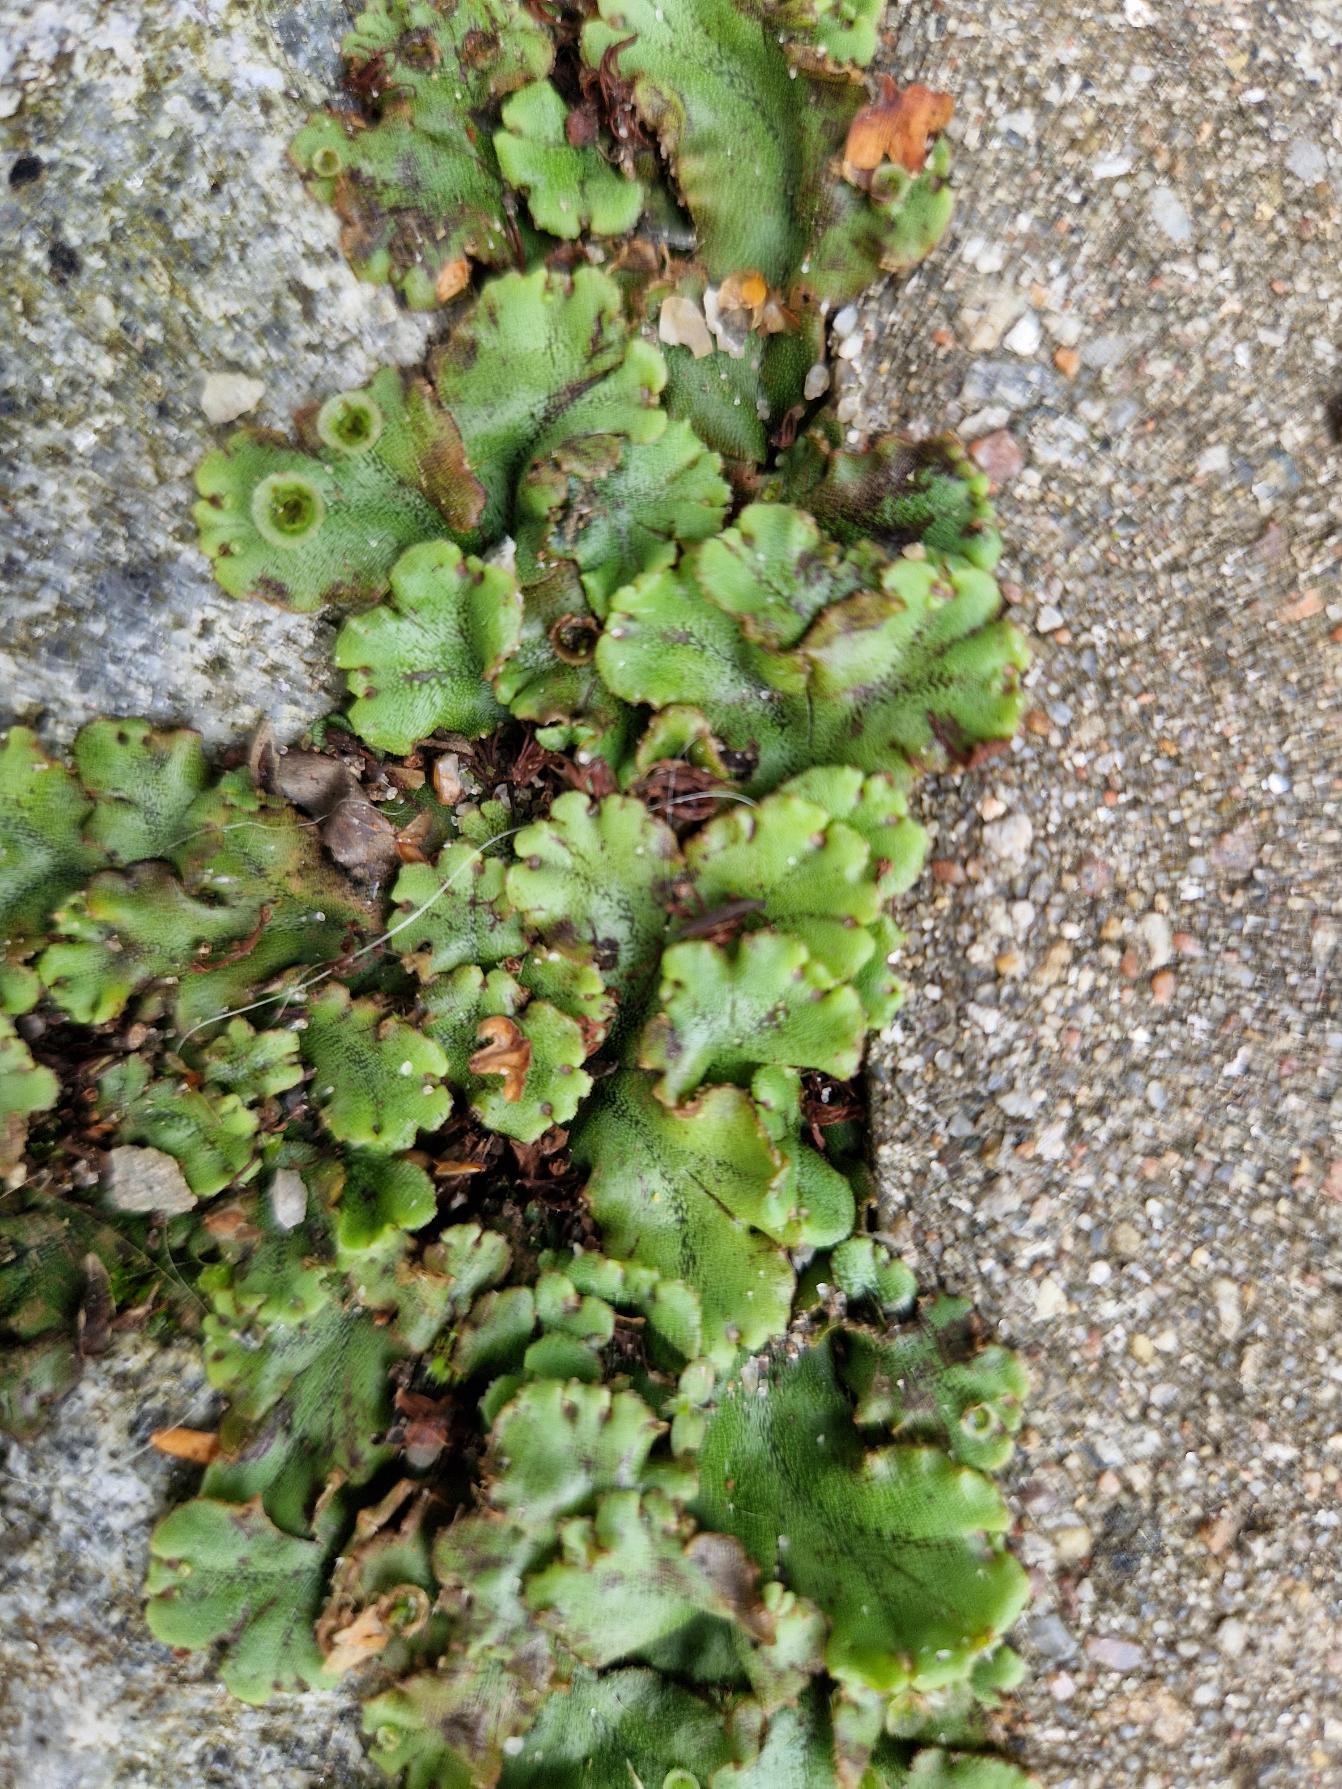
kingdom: Plantae
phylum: Marchantiophyta
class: Marchantiopsida
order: Marchantiales
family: Marchantiaceae
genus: Marchantia
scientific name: Marchantia polymorpha
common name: Almindelig lungemos (underart)
